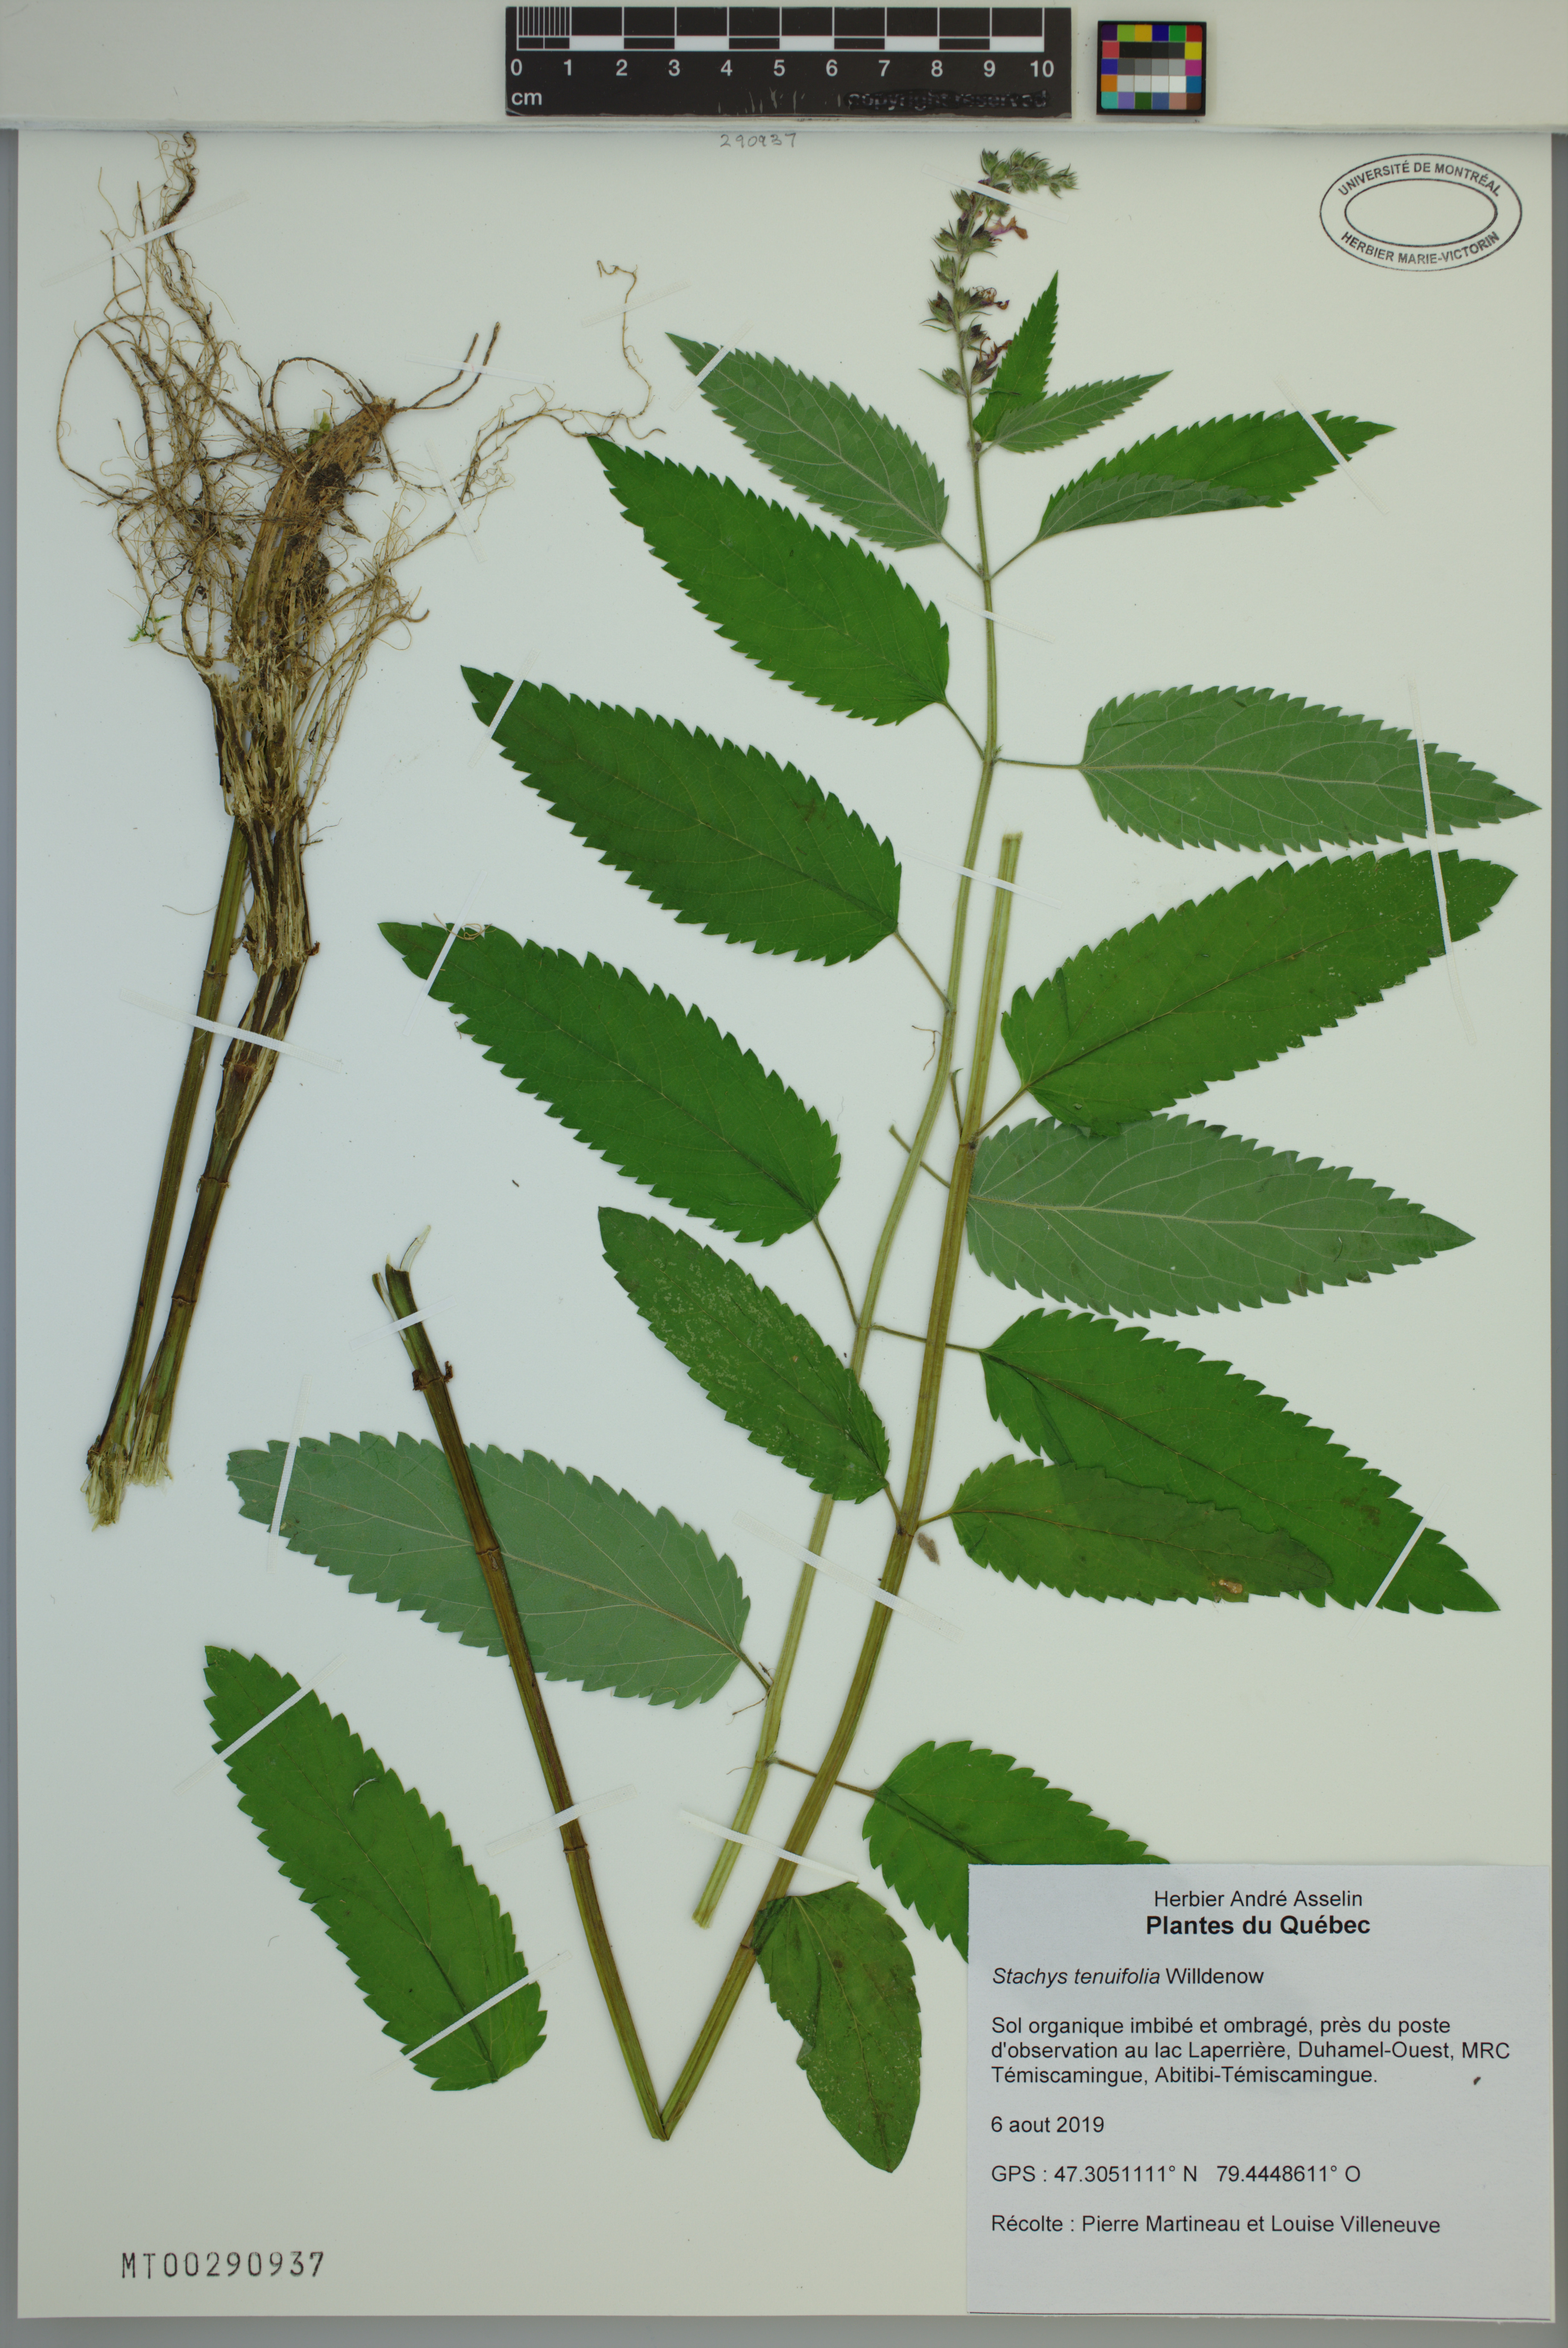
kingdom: Plantae
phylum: Tracheophyta
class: Magnoliopsida
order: Lamiales
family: Lamiaceae
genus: Stachys
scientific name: Stachys tenuifolia
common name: Smooth hedge-nettle
